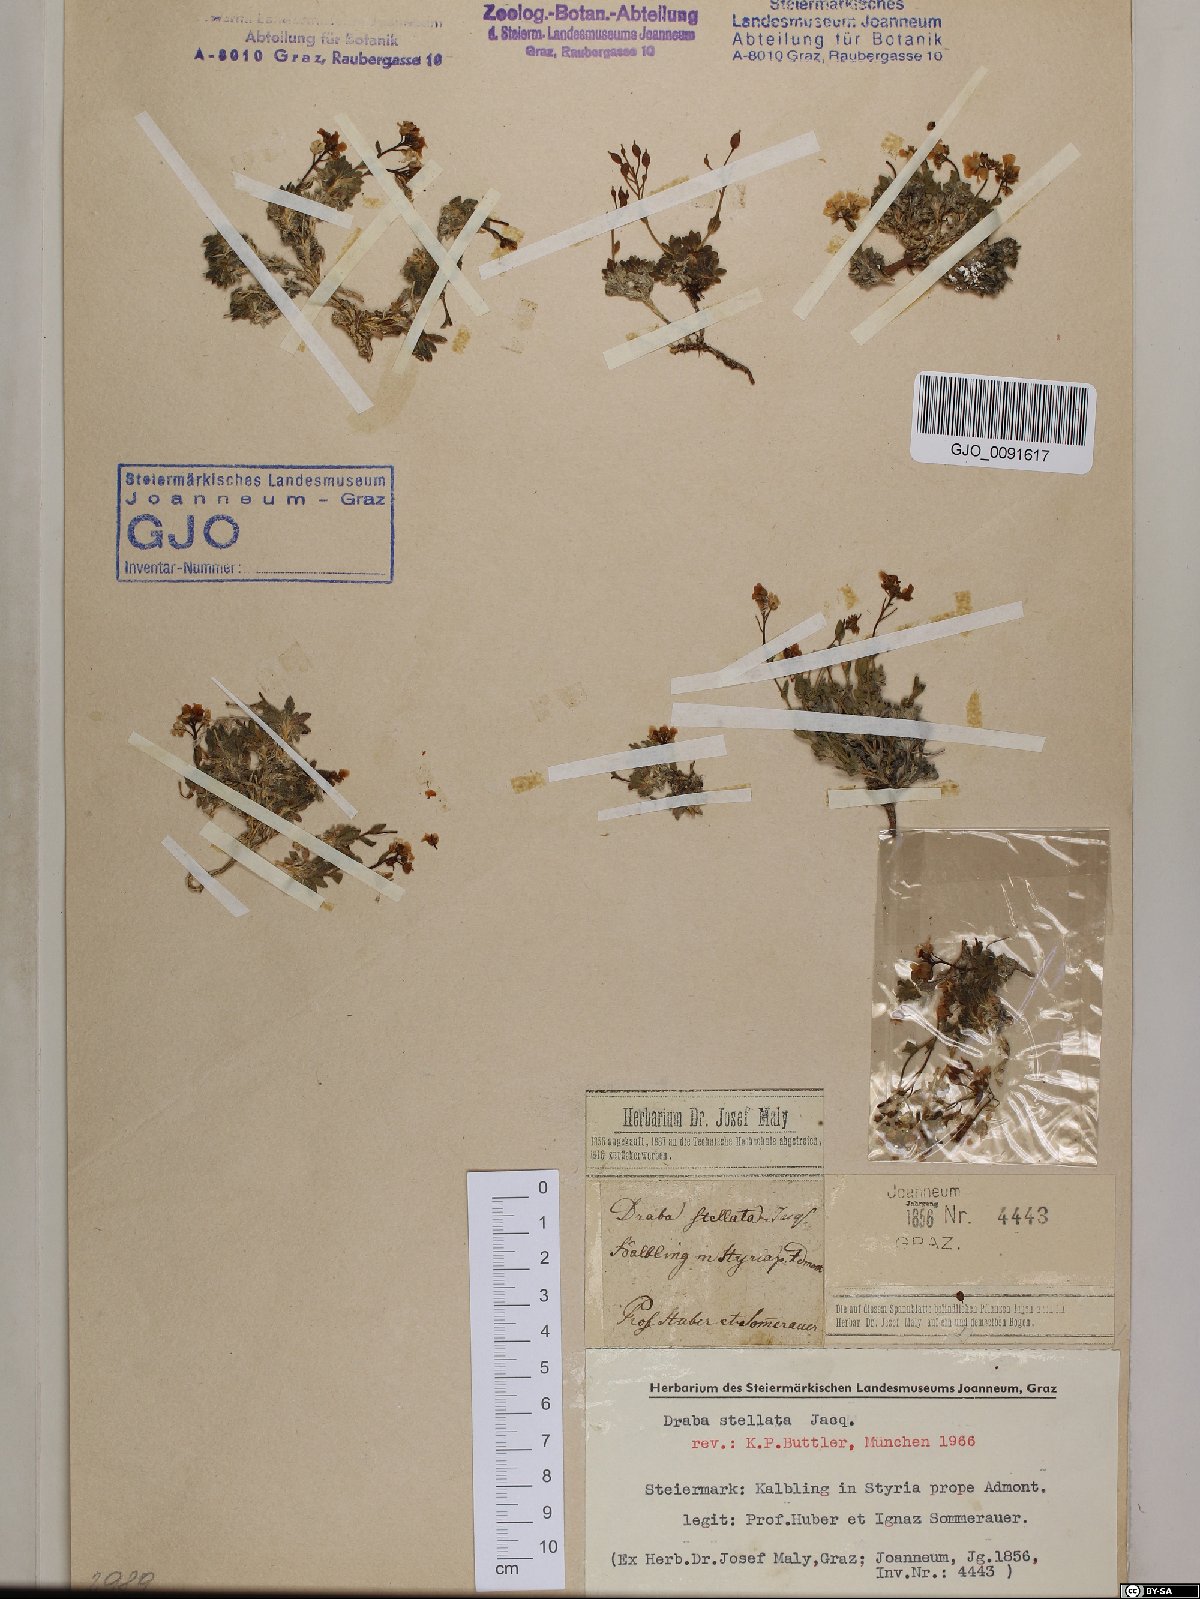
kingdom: Plantae
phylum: Tracheophyta
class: Magnoliopsida
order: Brassicales
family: Brassicaceae
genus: Draba
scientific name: Draba stellata
